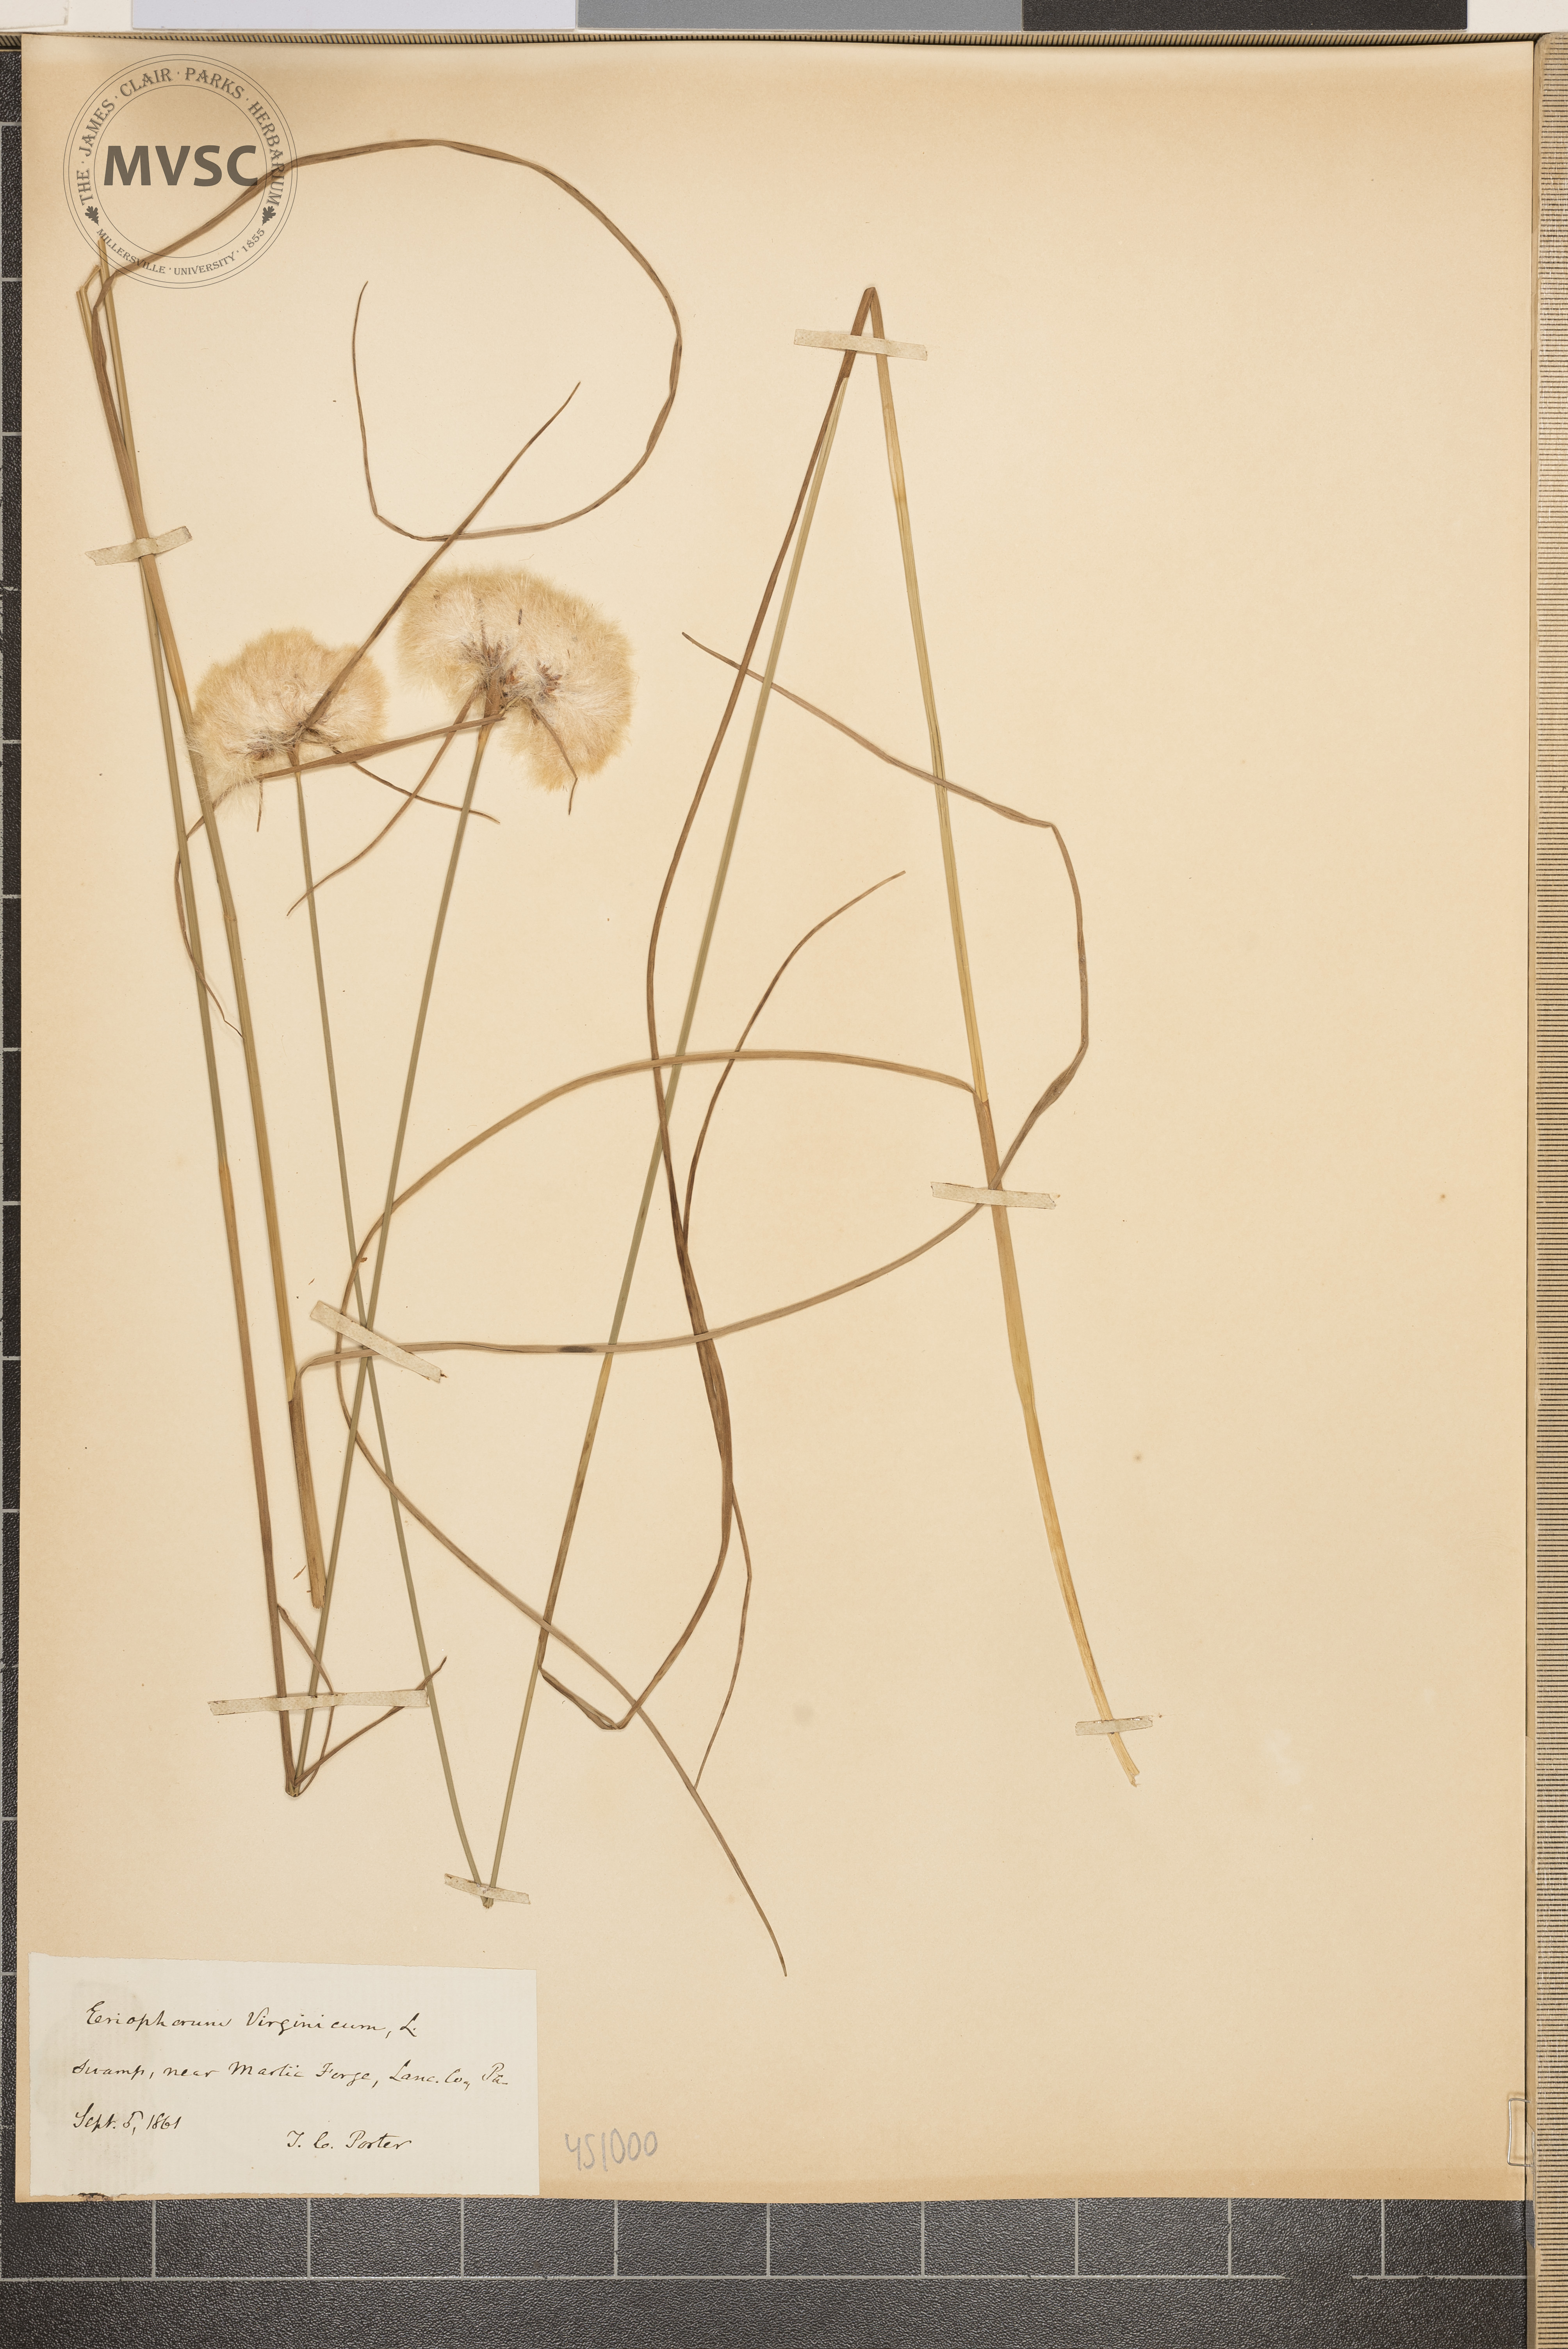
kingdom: Plantae
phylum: Tracheophyta
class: Liliopsida
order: Poales
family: Cyperaceae
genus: Eriophorum
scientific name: Eriophorum virginicum
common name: Tawny cottongrass
